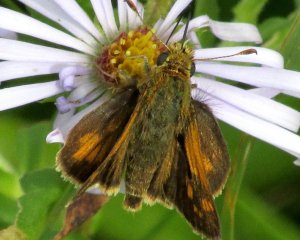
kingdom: Animalia
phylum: Arthropoda
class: Insecta
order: Lepidoptera
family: Hesperiidae
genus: Polites
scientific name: Polites themistocles
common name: Tawny-edged Skipper
